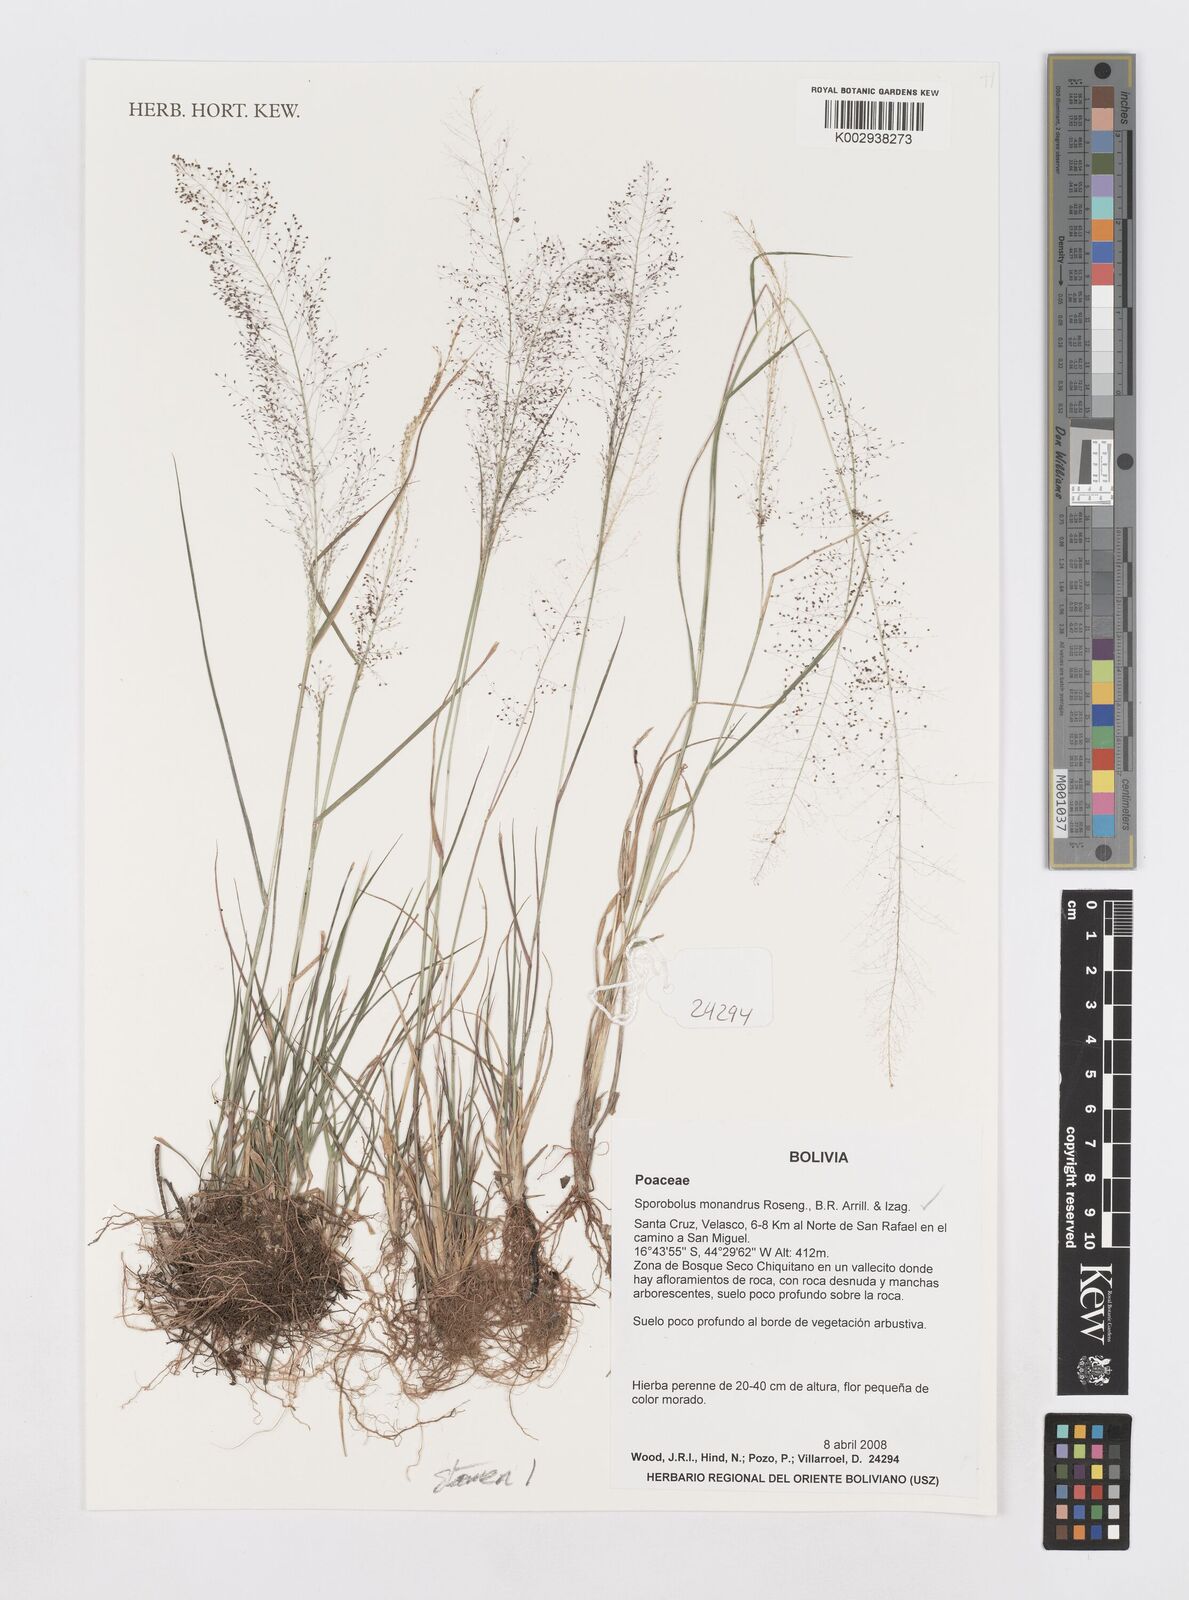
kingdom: Plantae
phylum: Tracheophyta
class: Liliopsida
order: Poales
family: Poaceae
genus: Sporobolus
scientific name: Sporobolus monandrus
